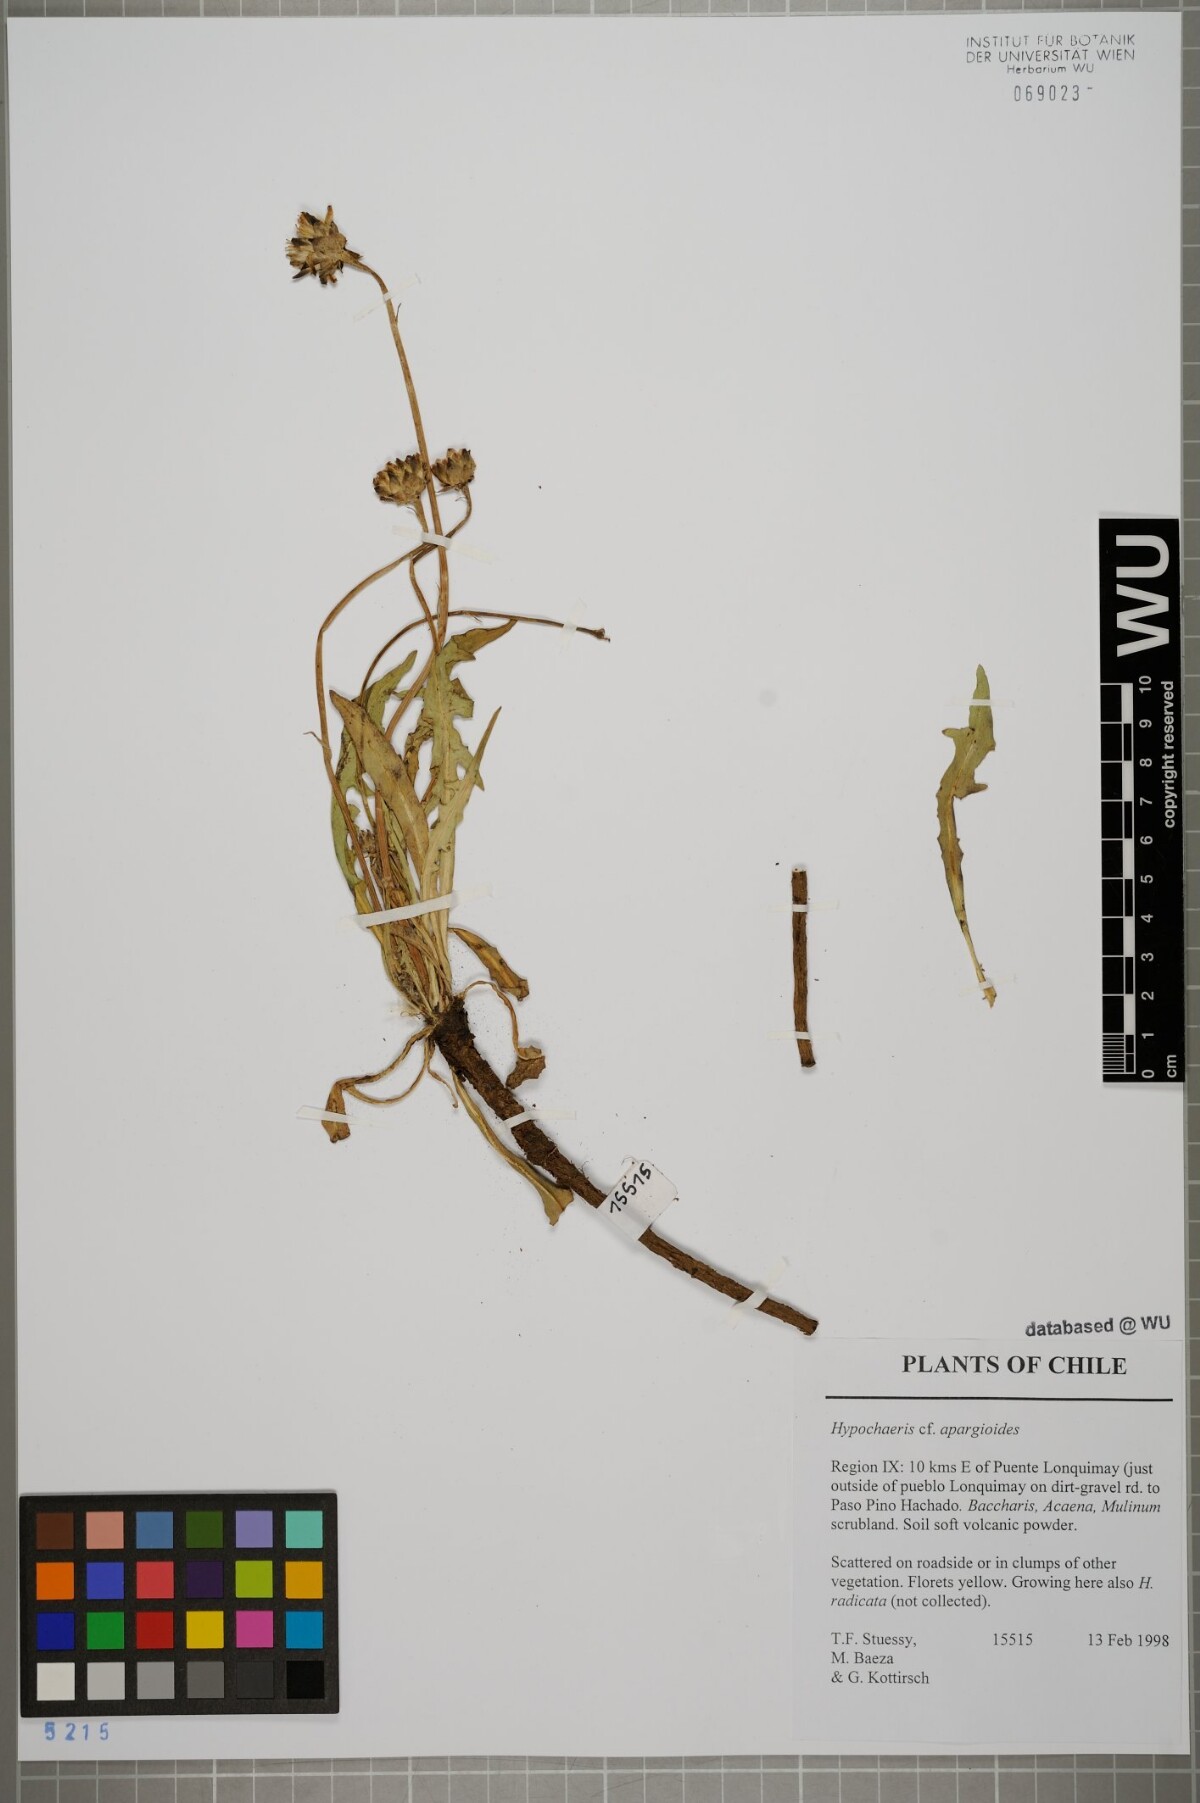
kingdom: Plantae
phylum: Tracheophyta
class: Magnoliopsida
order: Asterales
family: Asteraceae
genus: Hypochaeris
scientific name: Hypochaeris apargioides
